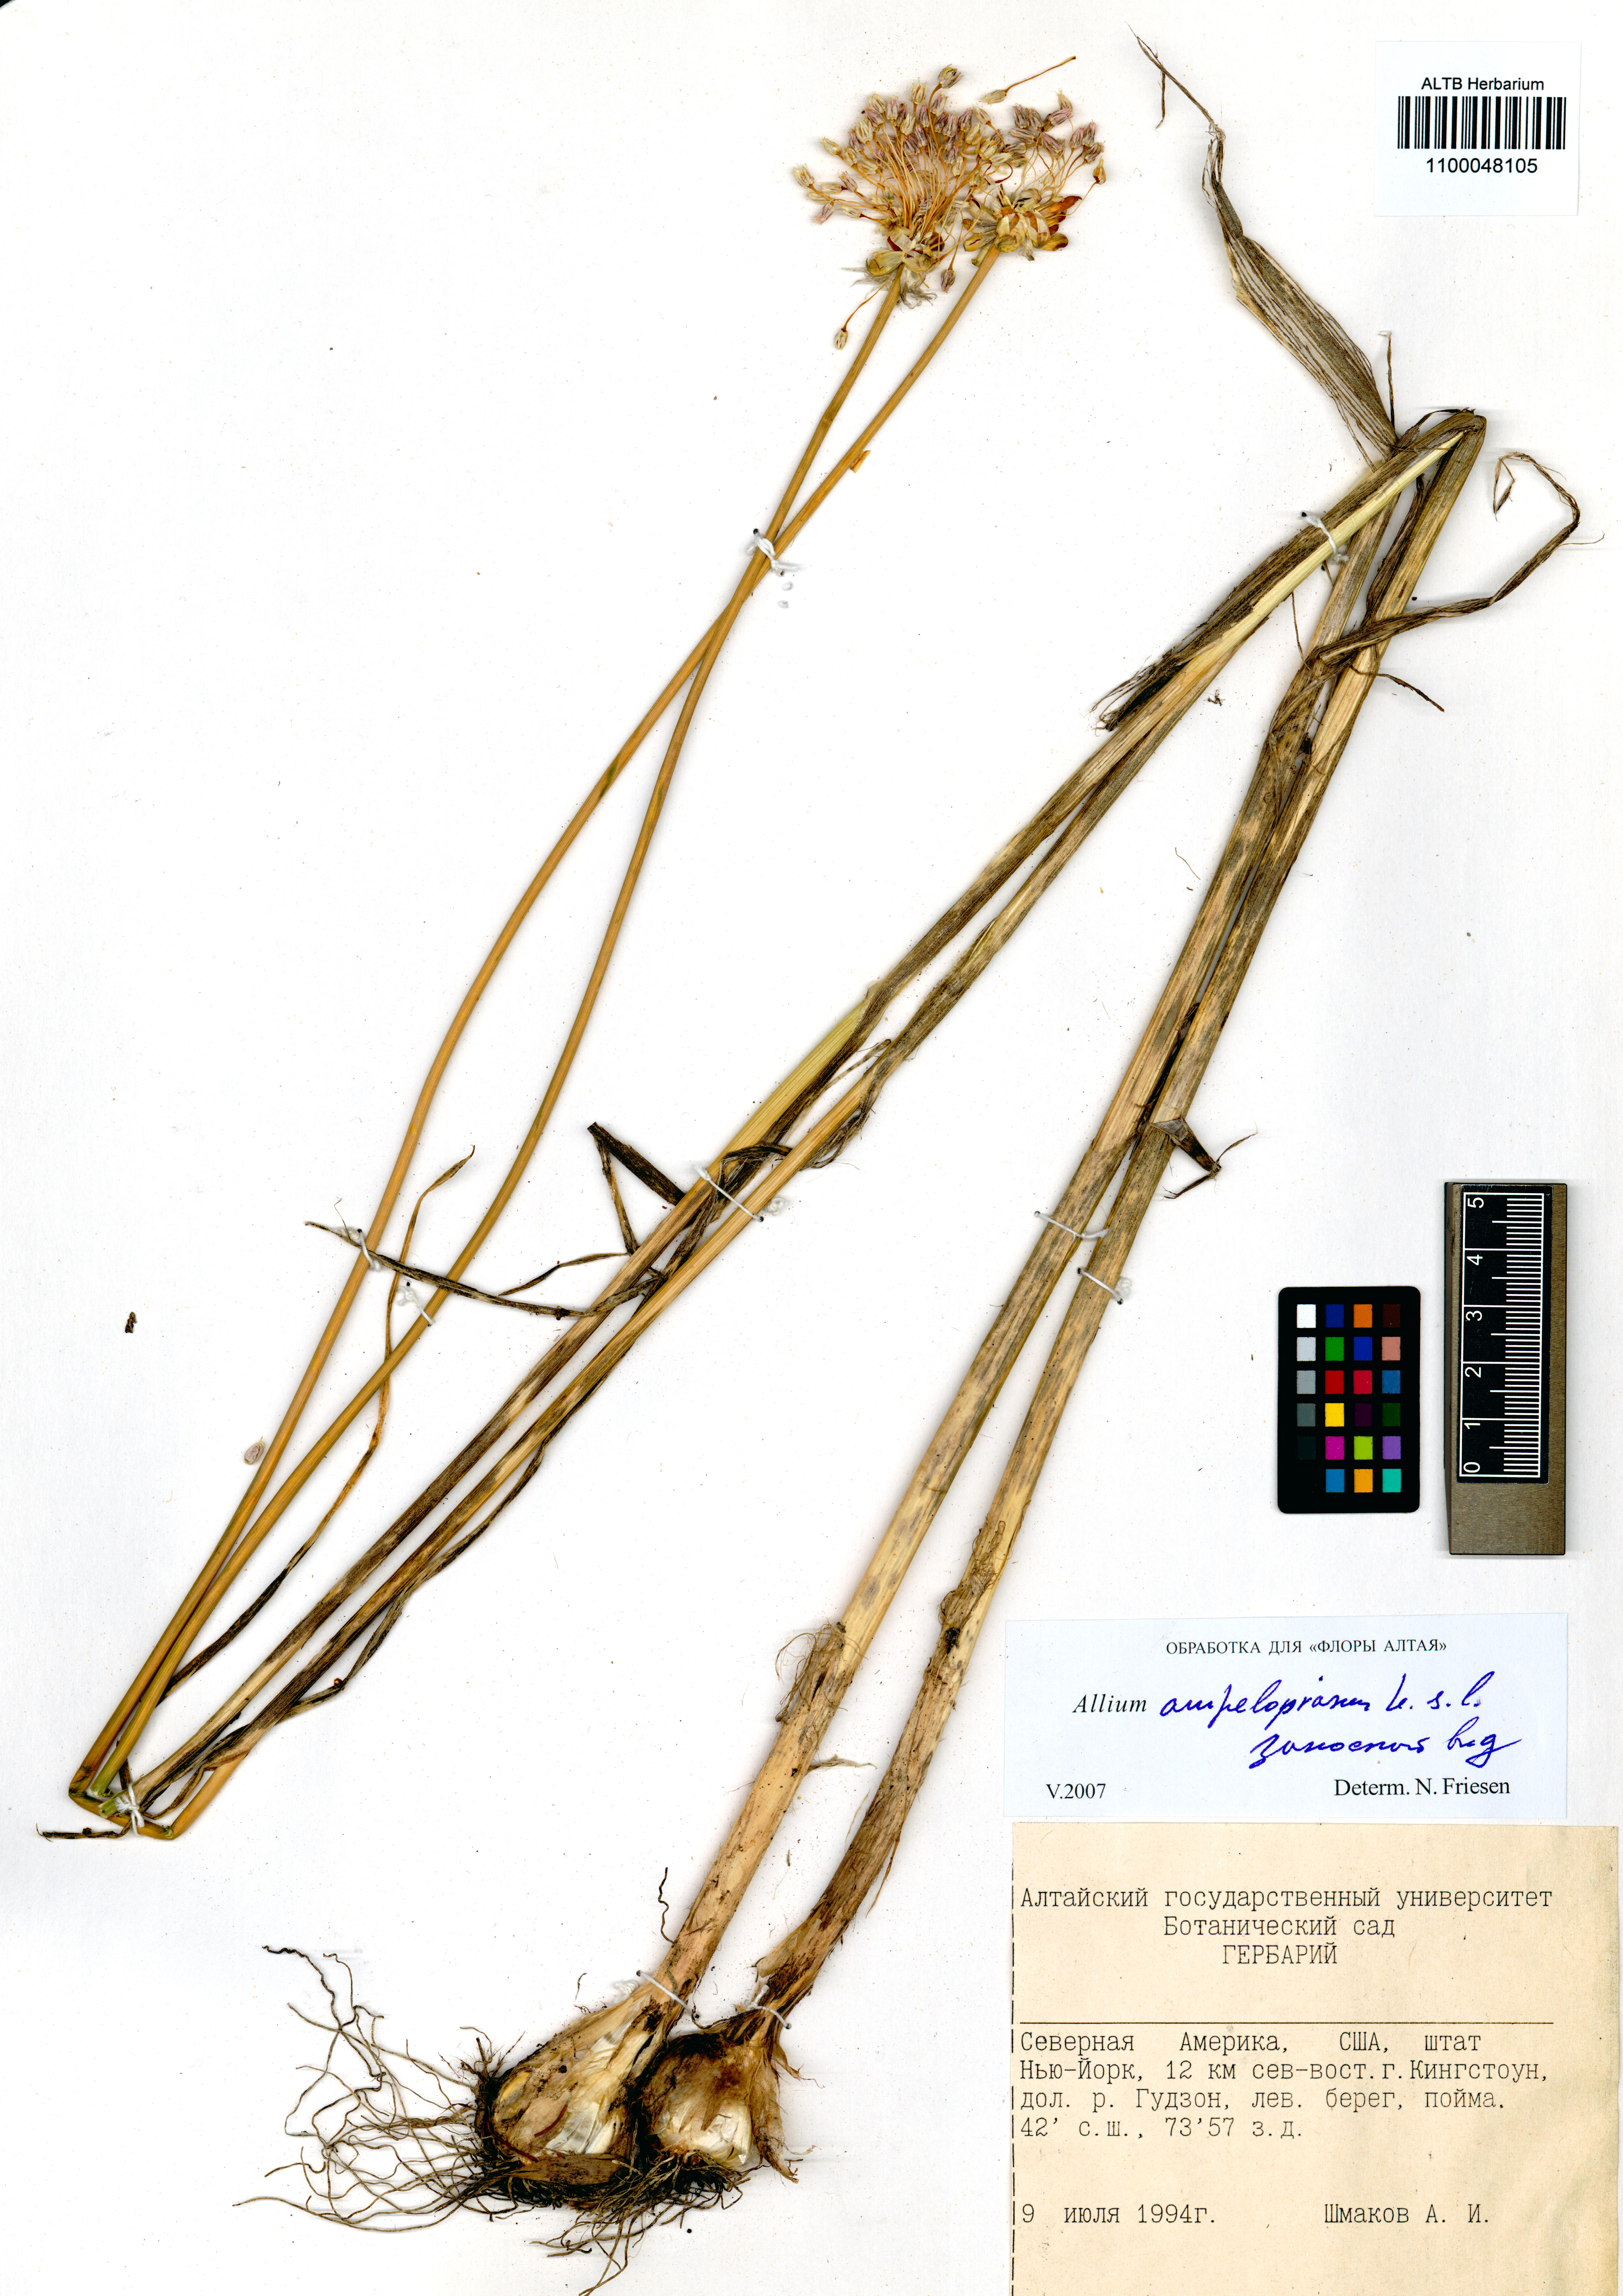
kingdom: Plantae
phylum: Tracheophyta
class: Liliopsida
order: Asparagales
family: Amaryllidaceae
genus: Allium
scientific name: Allium ampeloprasum
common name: Wild leek
